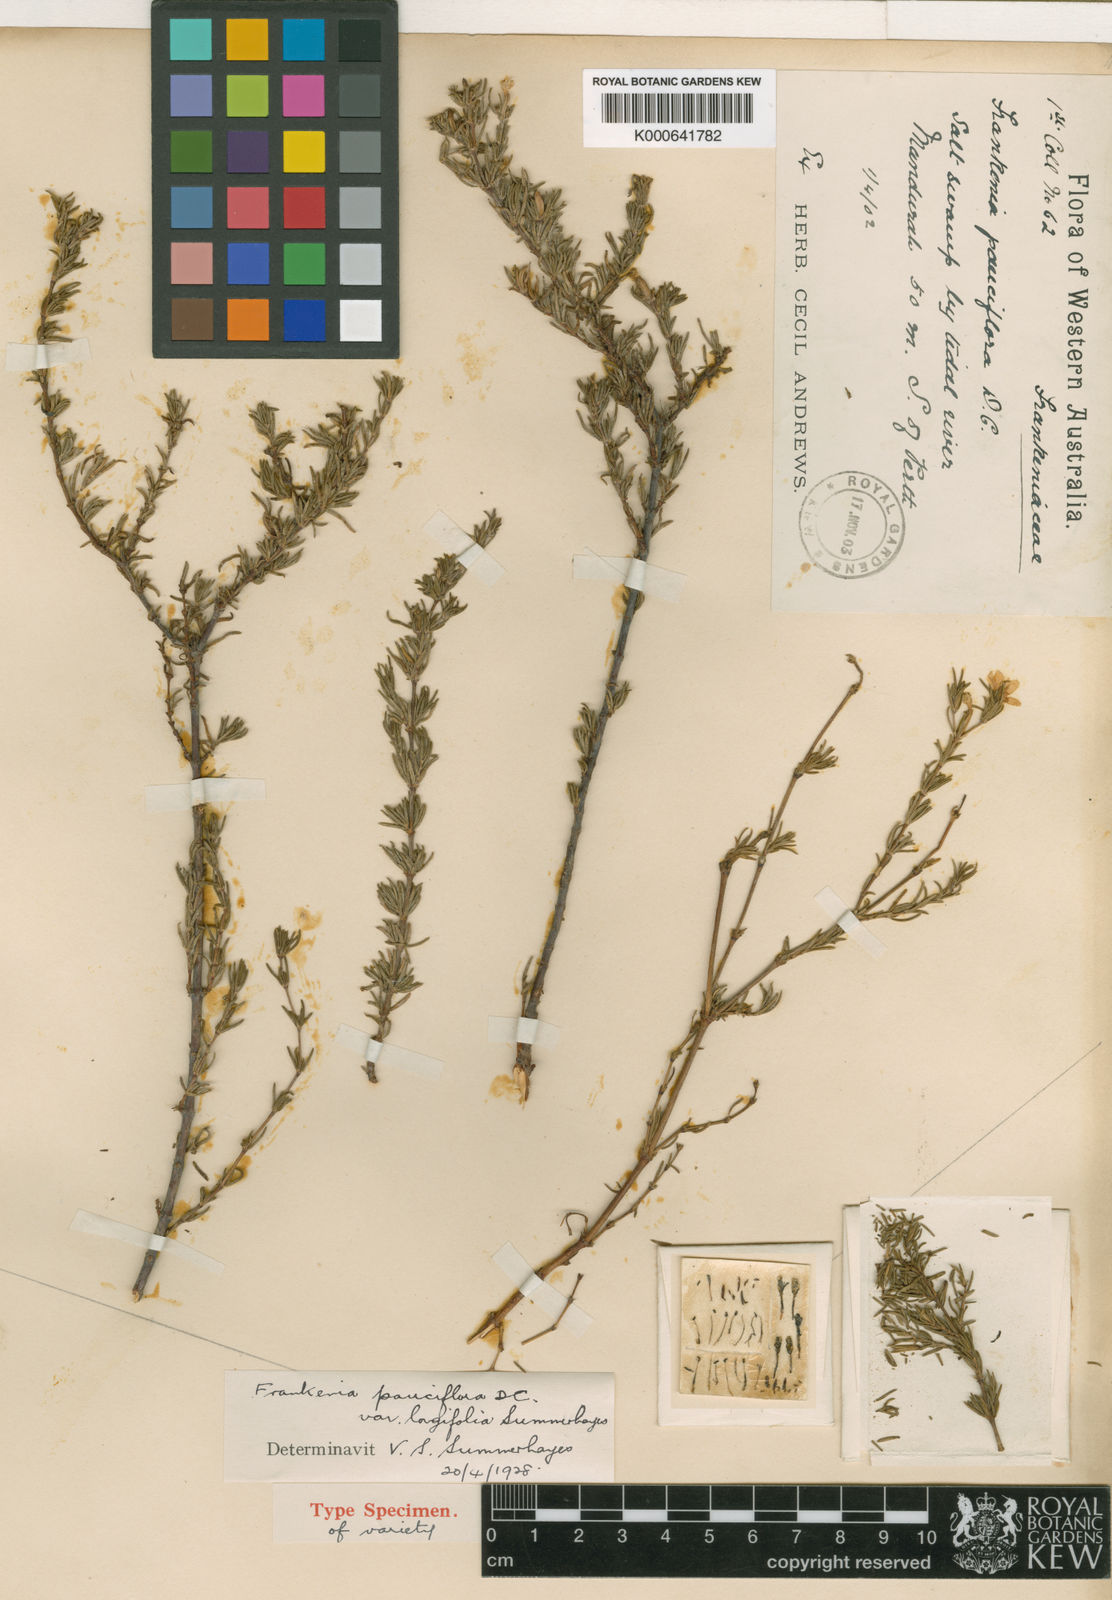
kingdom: Plantae
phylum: Tracheophyta
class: Magnoliopsida
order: Caryophyllales
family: Frankeniaceae
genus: Frankenia
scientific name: Frankenia pauciflora
